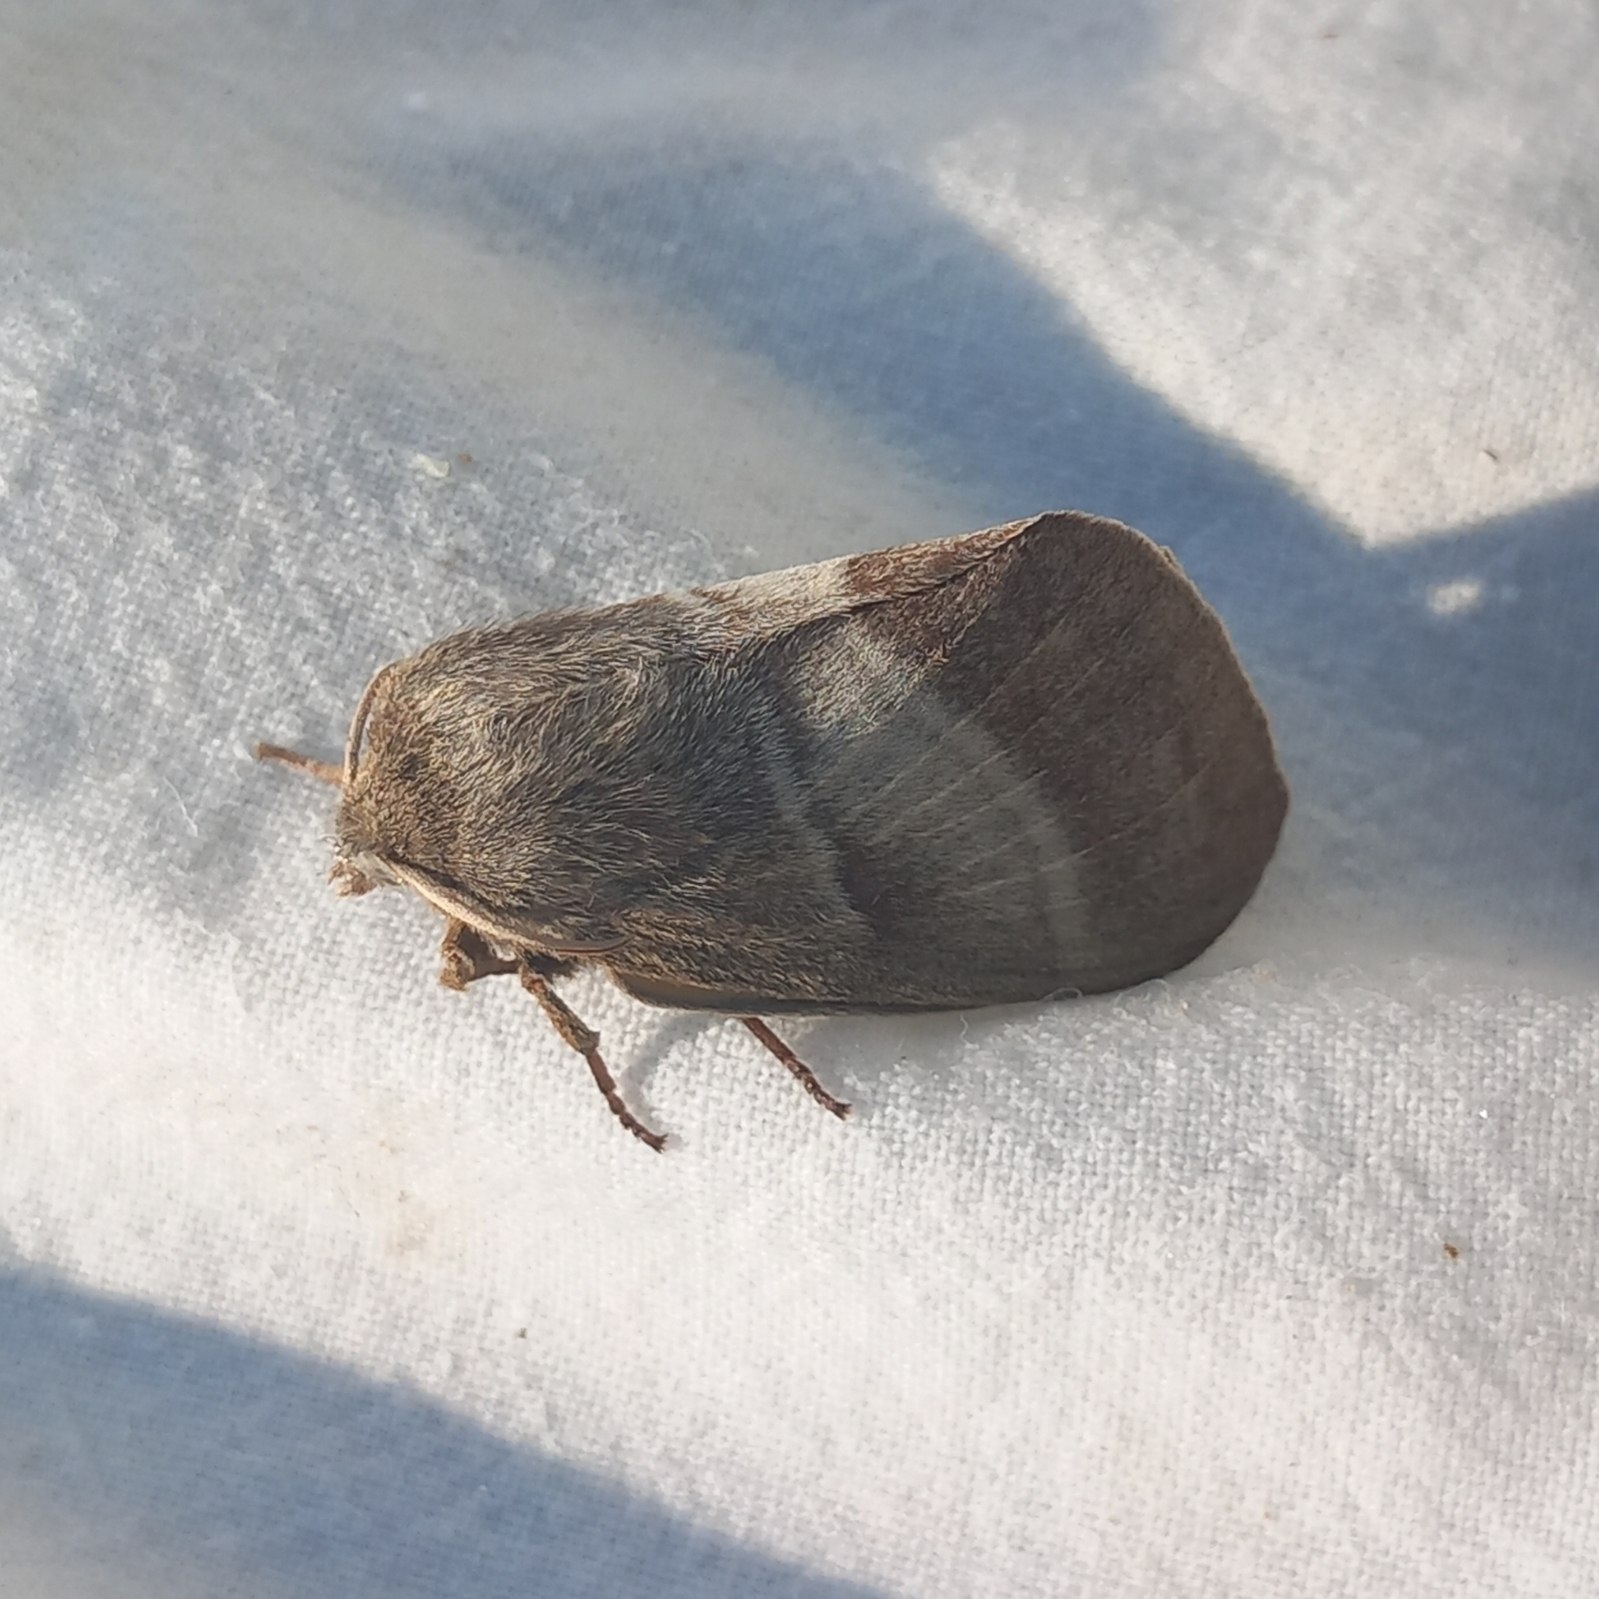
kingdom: Animalia
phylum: Arthropoda
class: Insecta
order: Lepidoptera
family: Lasiocampidae
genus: Macrothylacia
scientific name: Macrothylacia rubi
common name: Brombærspinder
